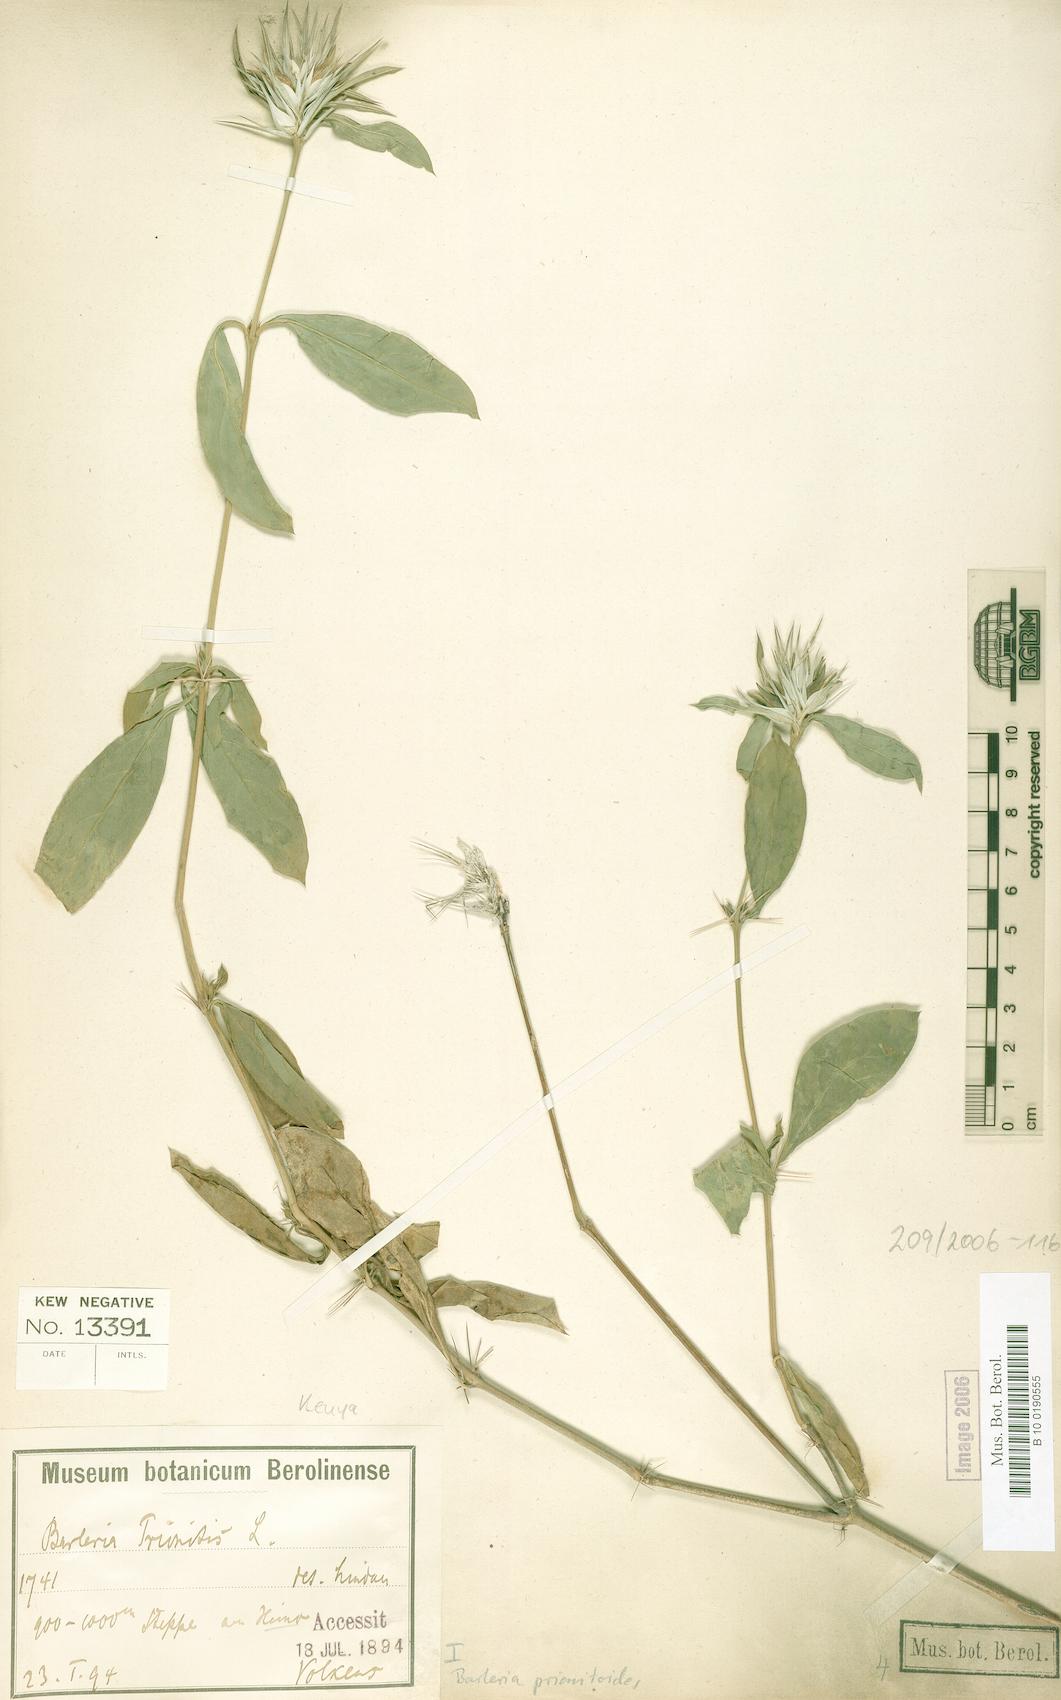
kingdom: Plantae
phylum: Tracheophyta
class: Magnoliopsida
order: Lamiales
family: Acanthaceae
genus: Barleria
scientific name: Barleria prionitis
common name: Barleria
